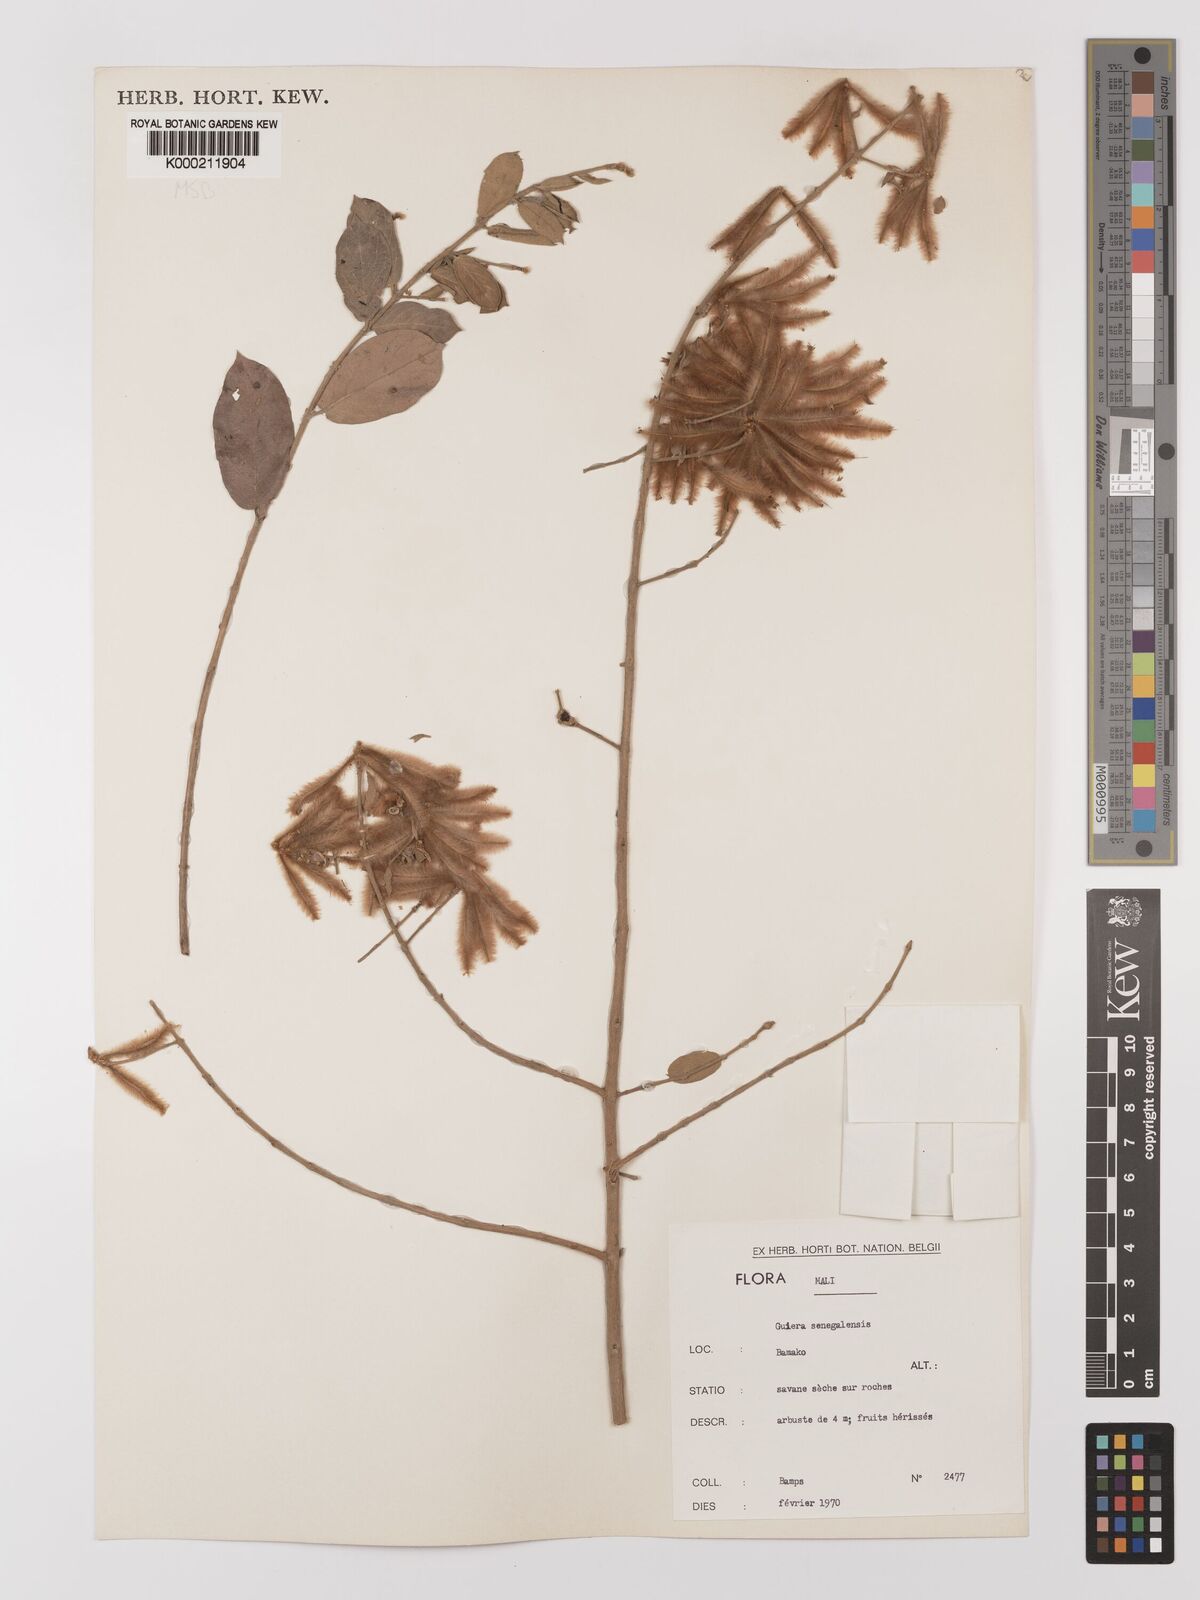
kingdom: Plantae
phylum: Tracheophyta
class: Magnoliopsida
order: Myrtales
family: Combretaceae
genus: Guiera
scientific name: Guiera senegalensis
